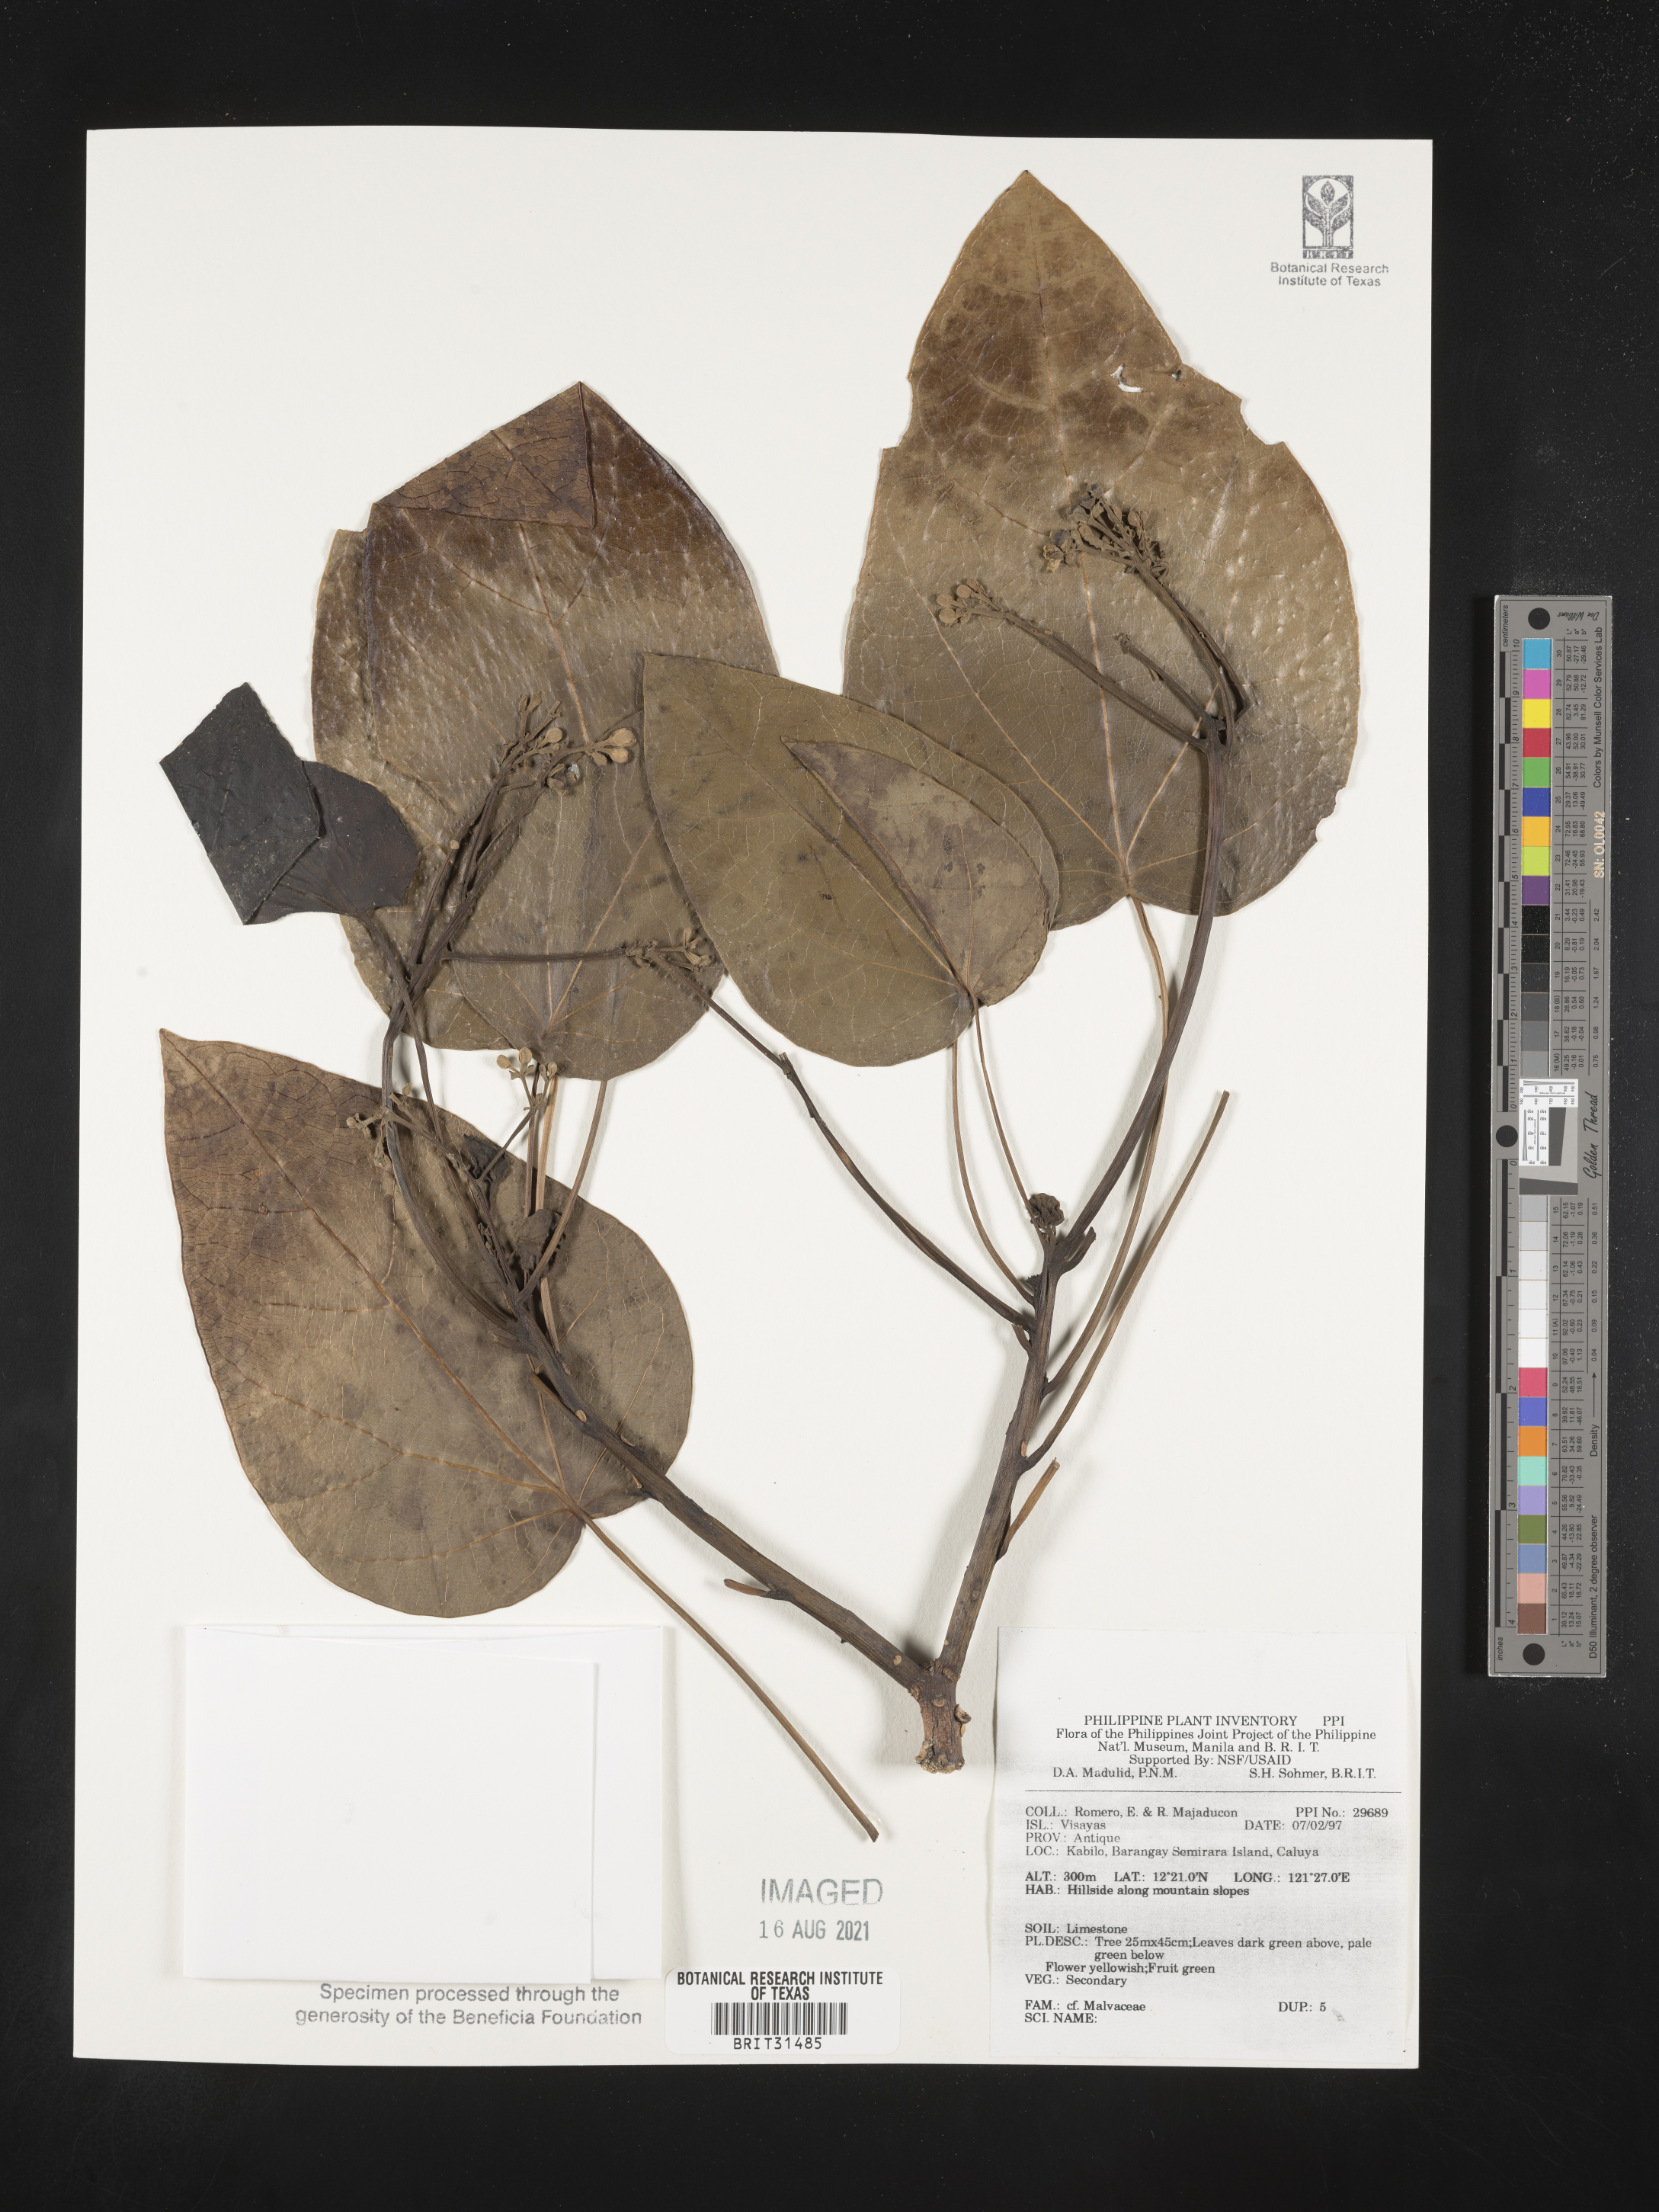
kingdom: Plantae
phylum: Tracheophyta
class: Magnoliopsida
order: Malvales
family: Malvaceae
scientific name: Malvaceae
